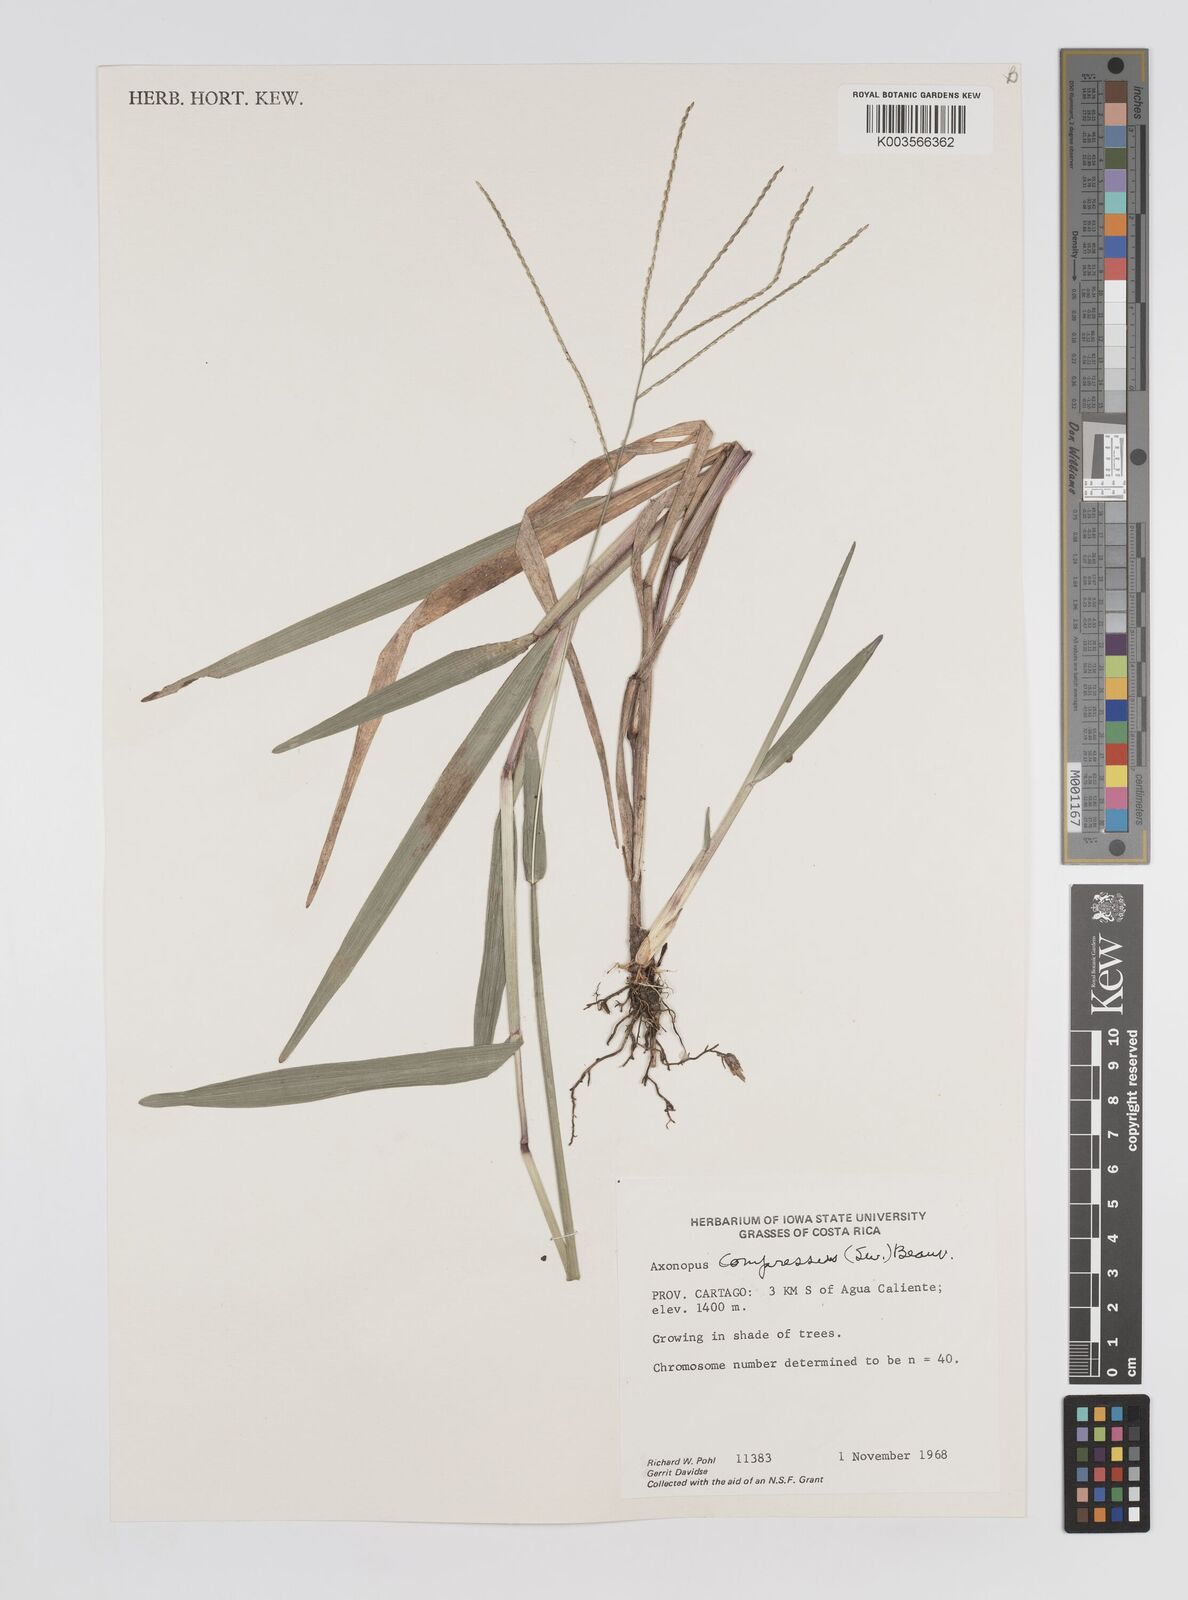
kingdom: Plantae
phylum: Tracheophyta
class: Liliopsida
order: Poales
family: Poaceae
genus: Axonopus
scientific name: Axonopus compressus
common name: American carpet grass
